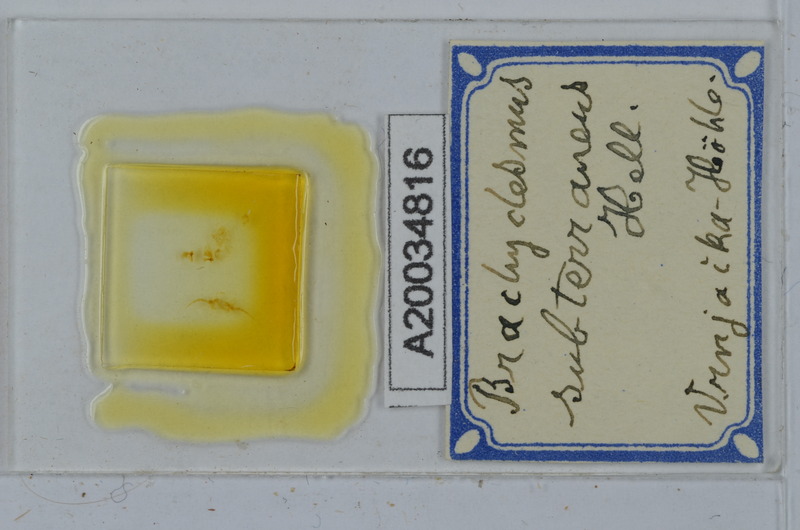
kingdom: Animalia
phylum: Arthropoda
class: Diplopoda
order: Polydesmida
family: Polydesmidae
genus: Brachydesmus
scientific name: Brachydesmus subterraneus
